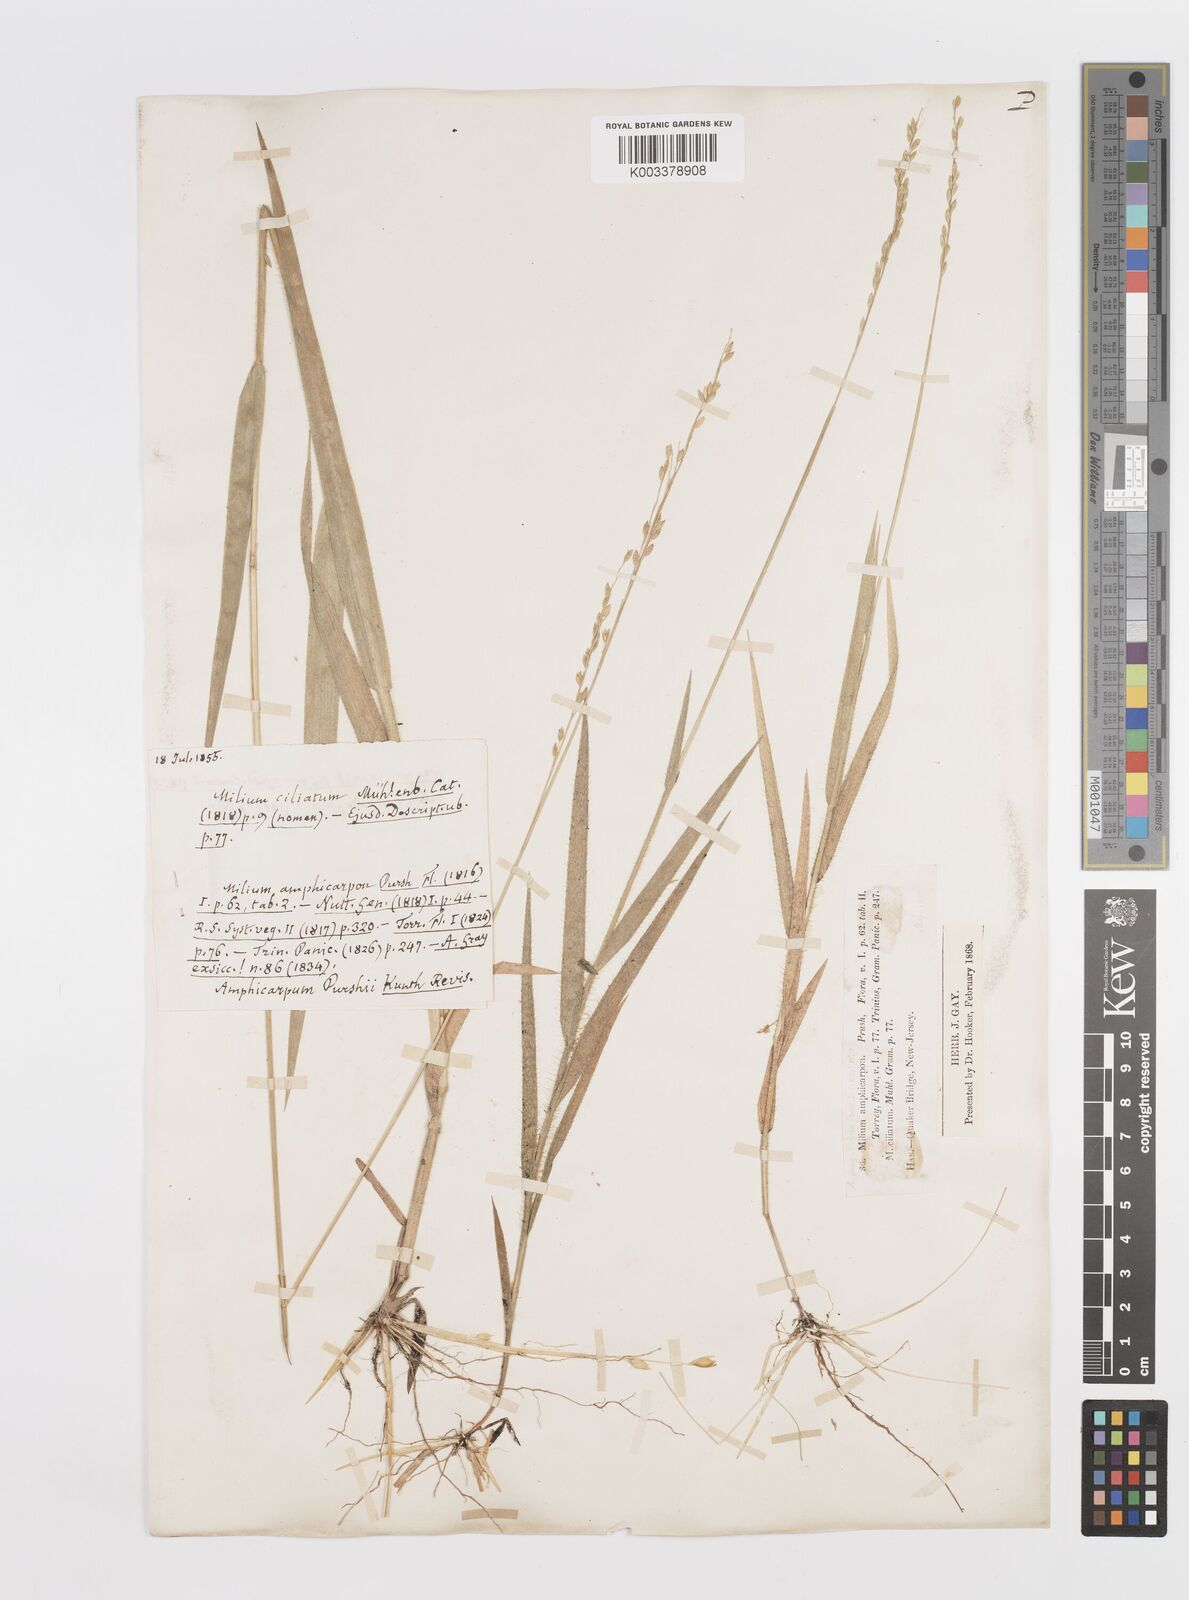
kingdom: Plantae
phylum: Tracheophyta
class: Liliopsida
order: Poales
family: Poaceae
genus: Amphicarpum
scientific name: Amphicarpum amphicarpon
